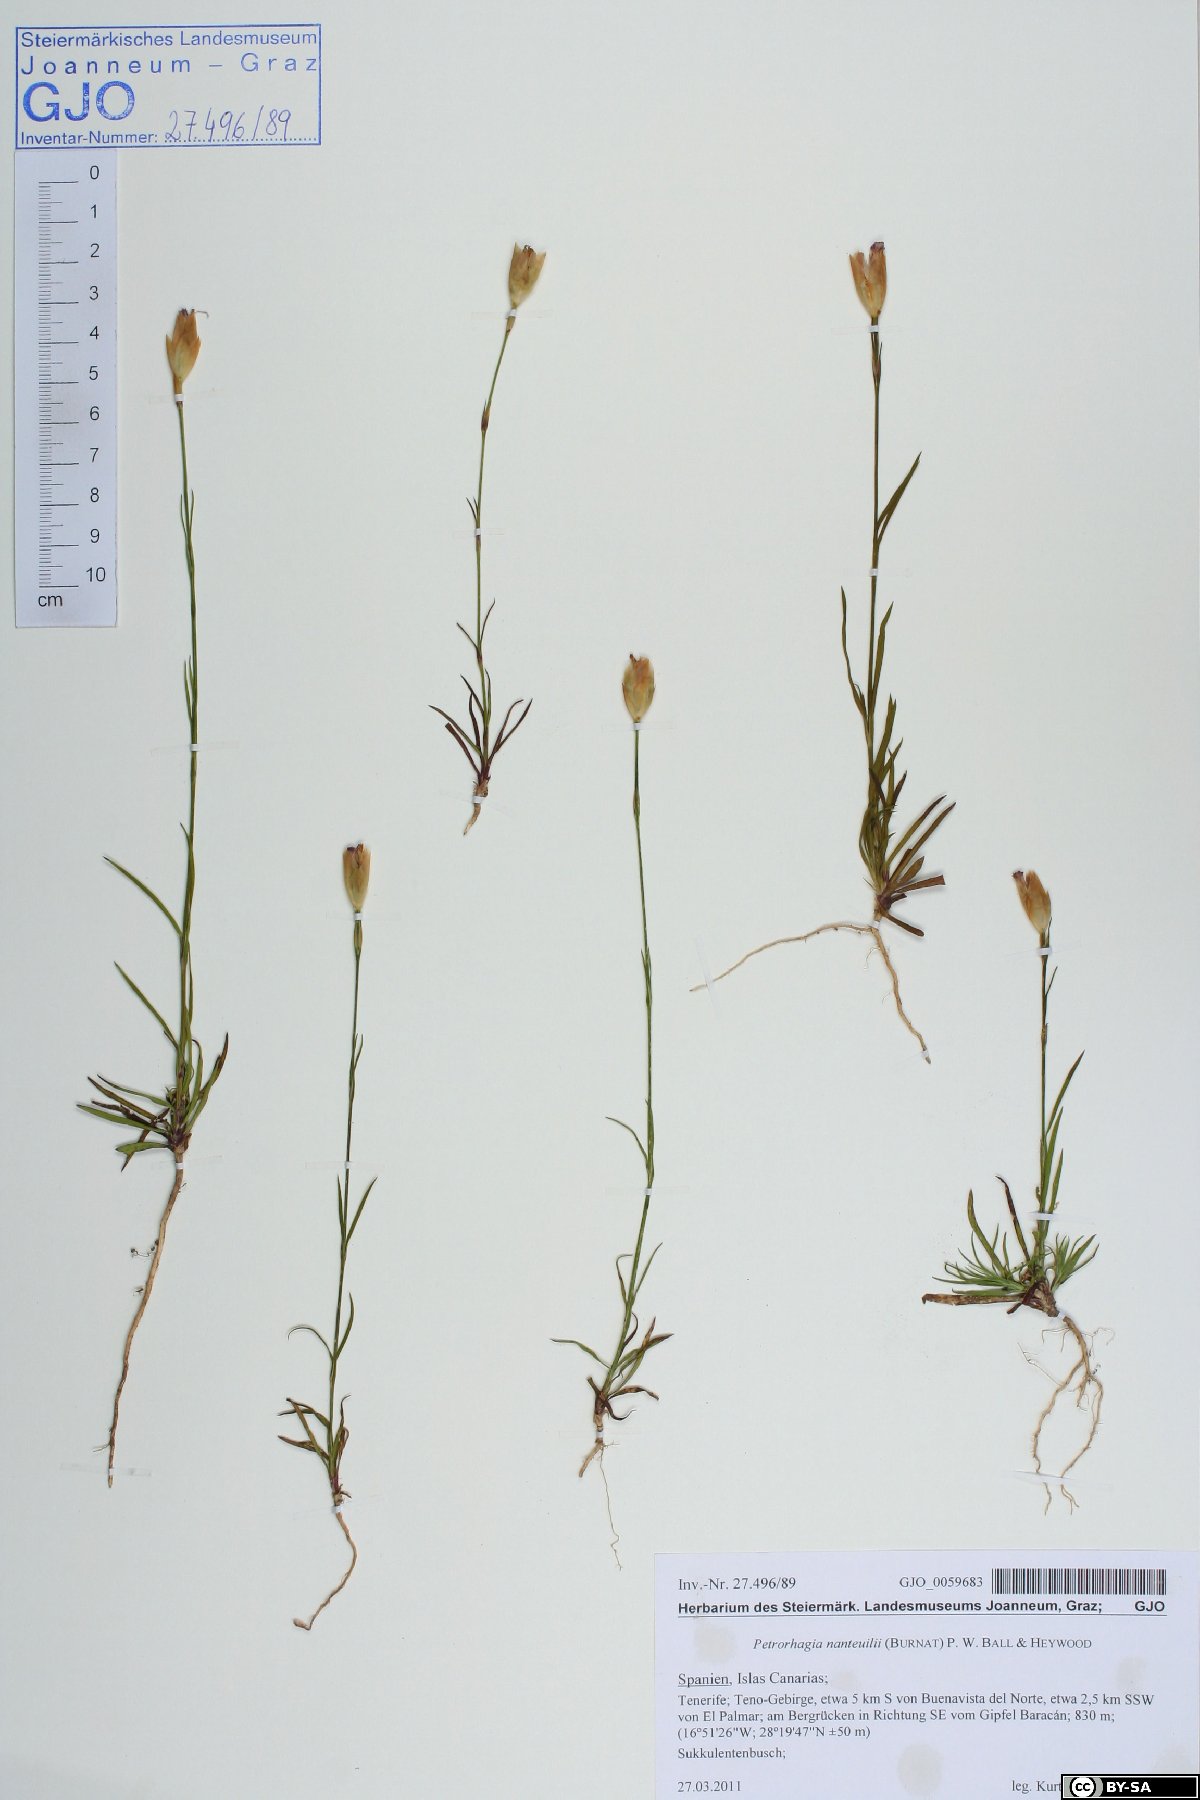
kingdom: Plantae
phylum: Tracheophyta
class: Magnoliopsida
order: Caryophyllales
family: Caryophyllaceae
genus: Petrorhagia
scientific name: Petrorhagia nanteuilii
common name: Proliferous pink
